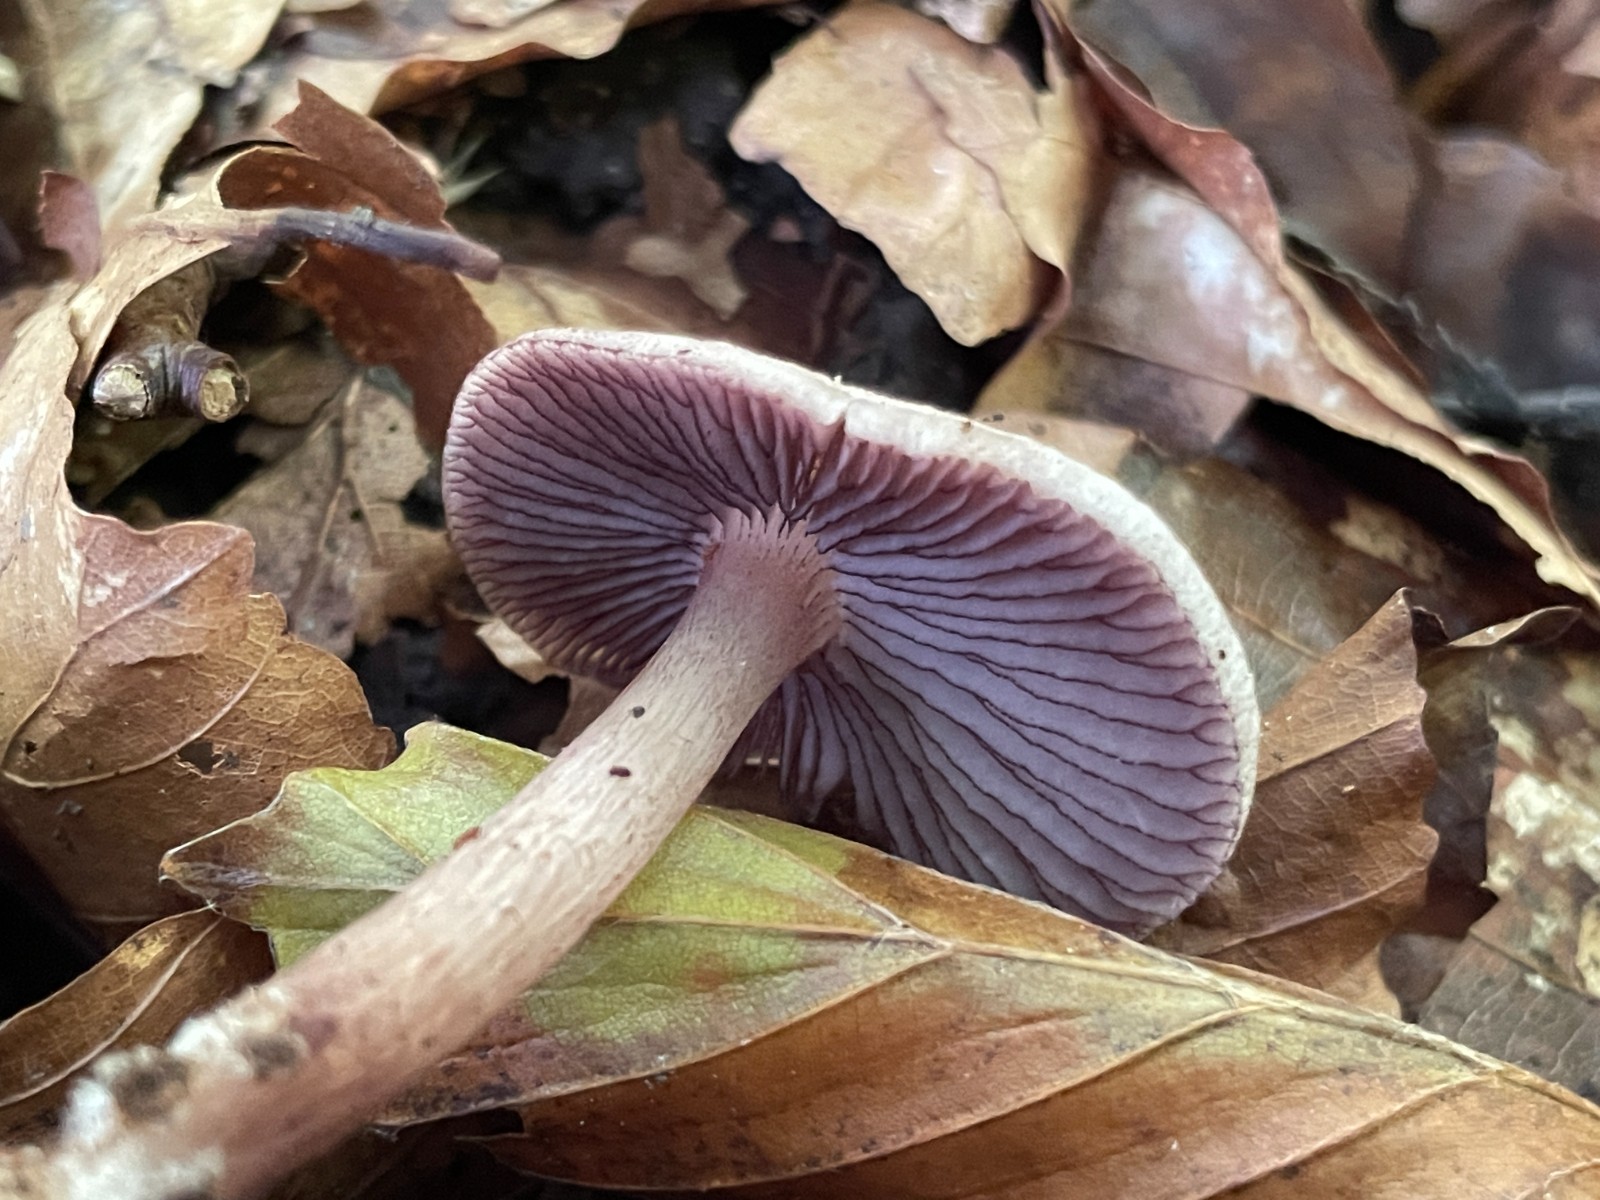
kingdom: Fungi
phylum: Basidiomycota
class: Agaricomycetes
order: Agaricales
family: Mycenaceae
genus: Mycena
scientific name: Mycena pelianthina
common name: mørkbladet huesvamp
